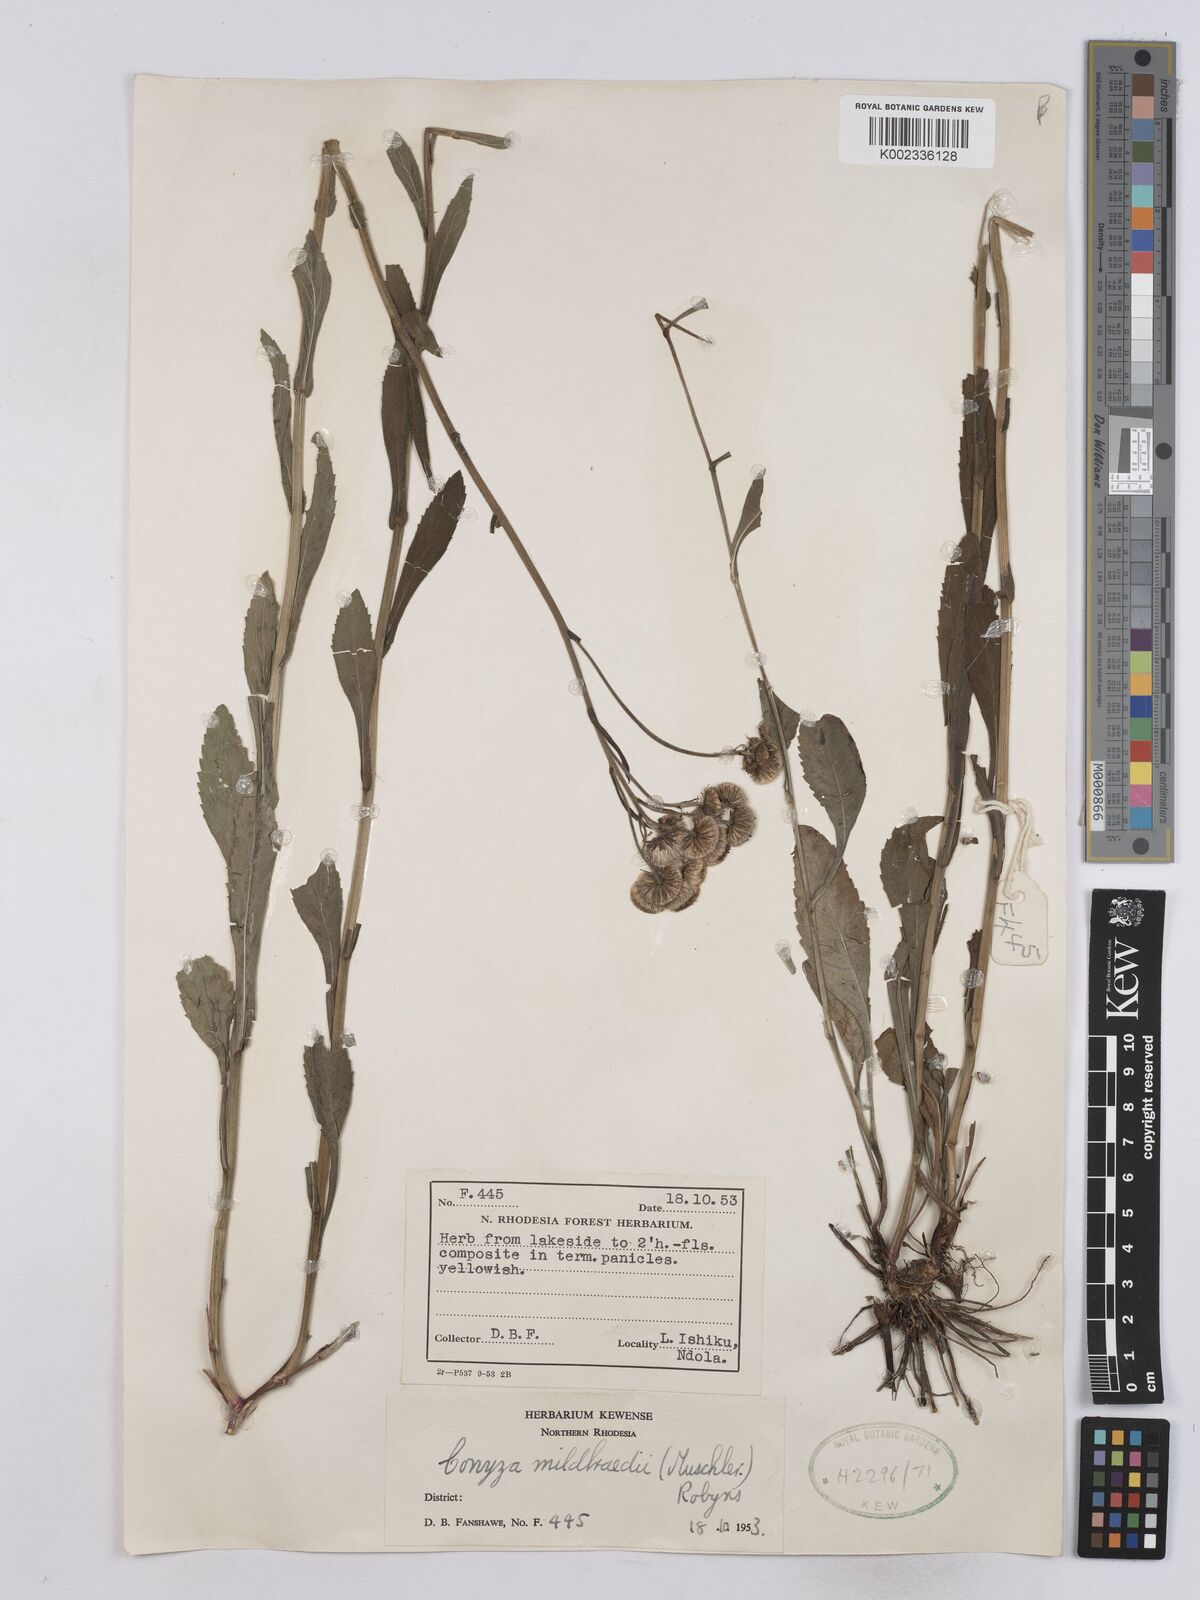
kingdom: Plantae
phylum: Tracheophyta
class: Magnoliopsida
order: Asterales
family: Asteraceae
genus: Conyza
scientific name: Conyza limosa
